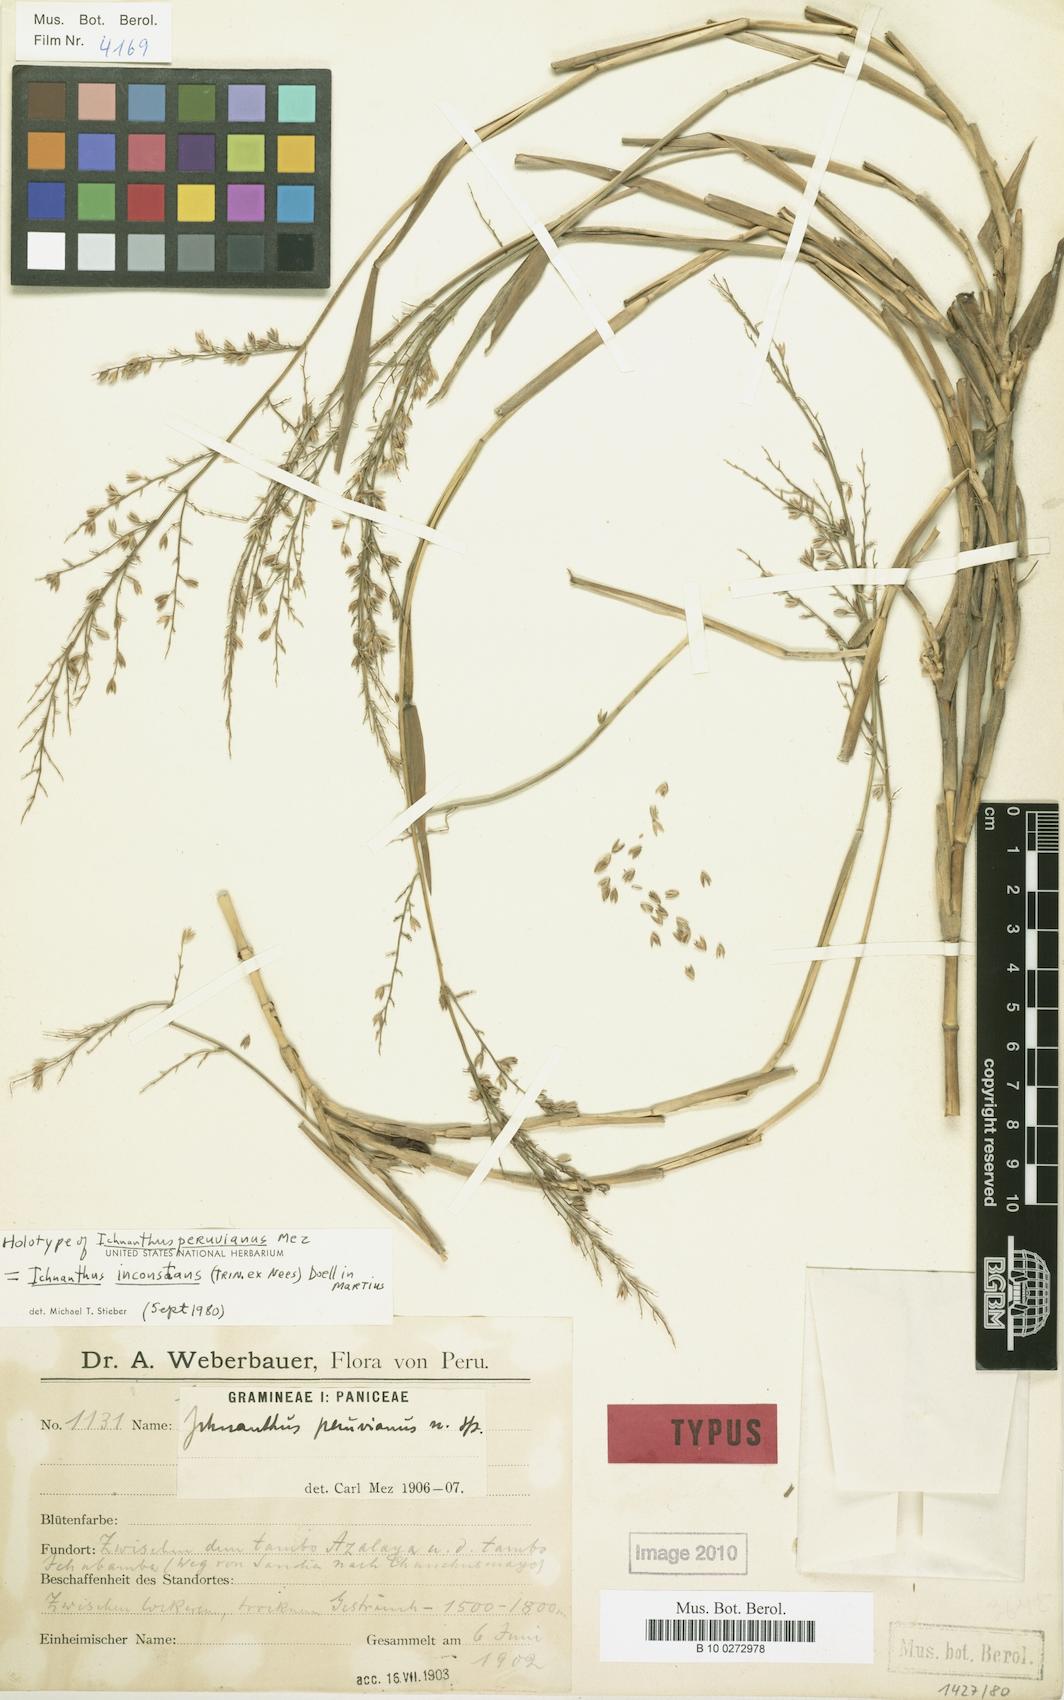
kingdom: Plantae
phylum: Tracheophyta
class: Liliopsida
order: Poales
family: Poaceae
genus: Ichnanthus
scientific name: Ichnanthus inconstans
